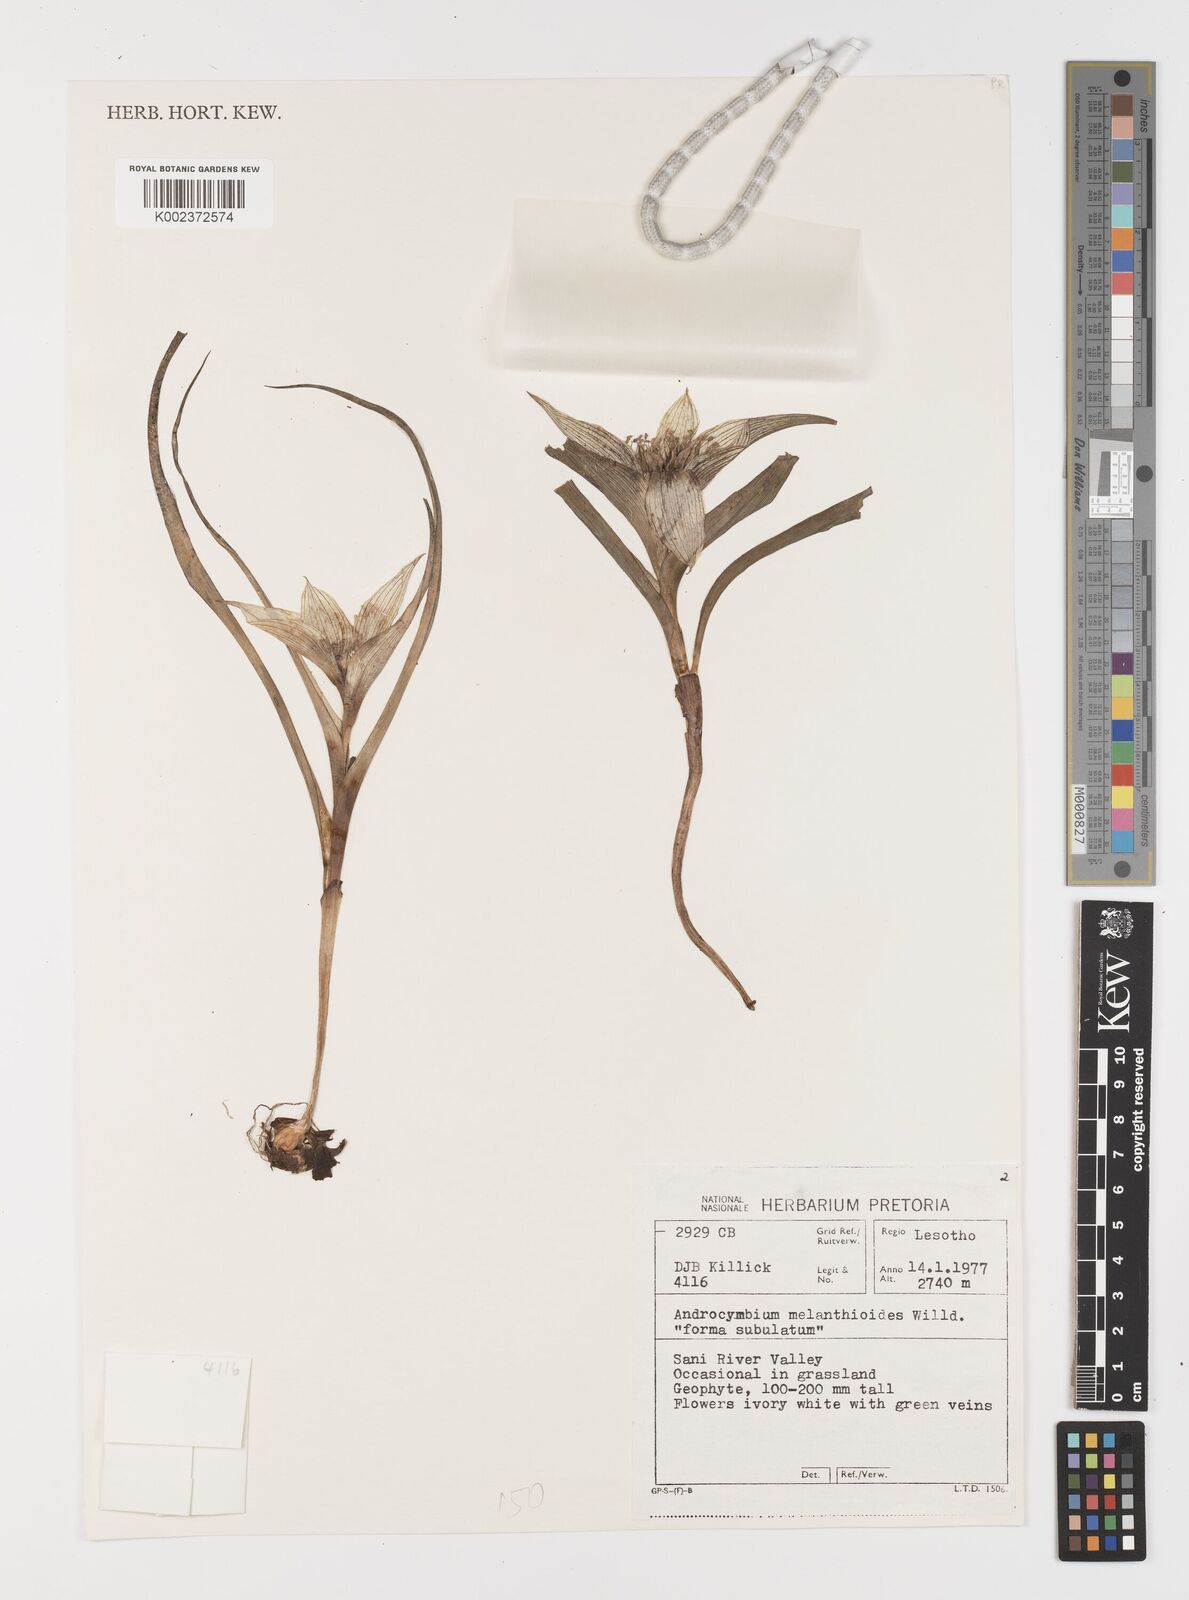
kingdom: Plantae
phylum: Tracheophyta
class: Liliopsida
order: Liliales
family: Colchicaceae
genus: Colchicum
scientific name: Colchicum melanthioides
